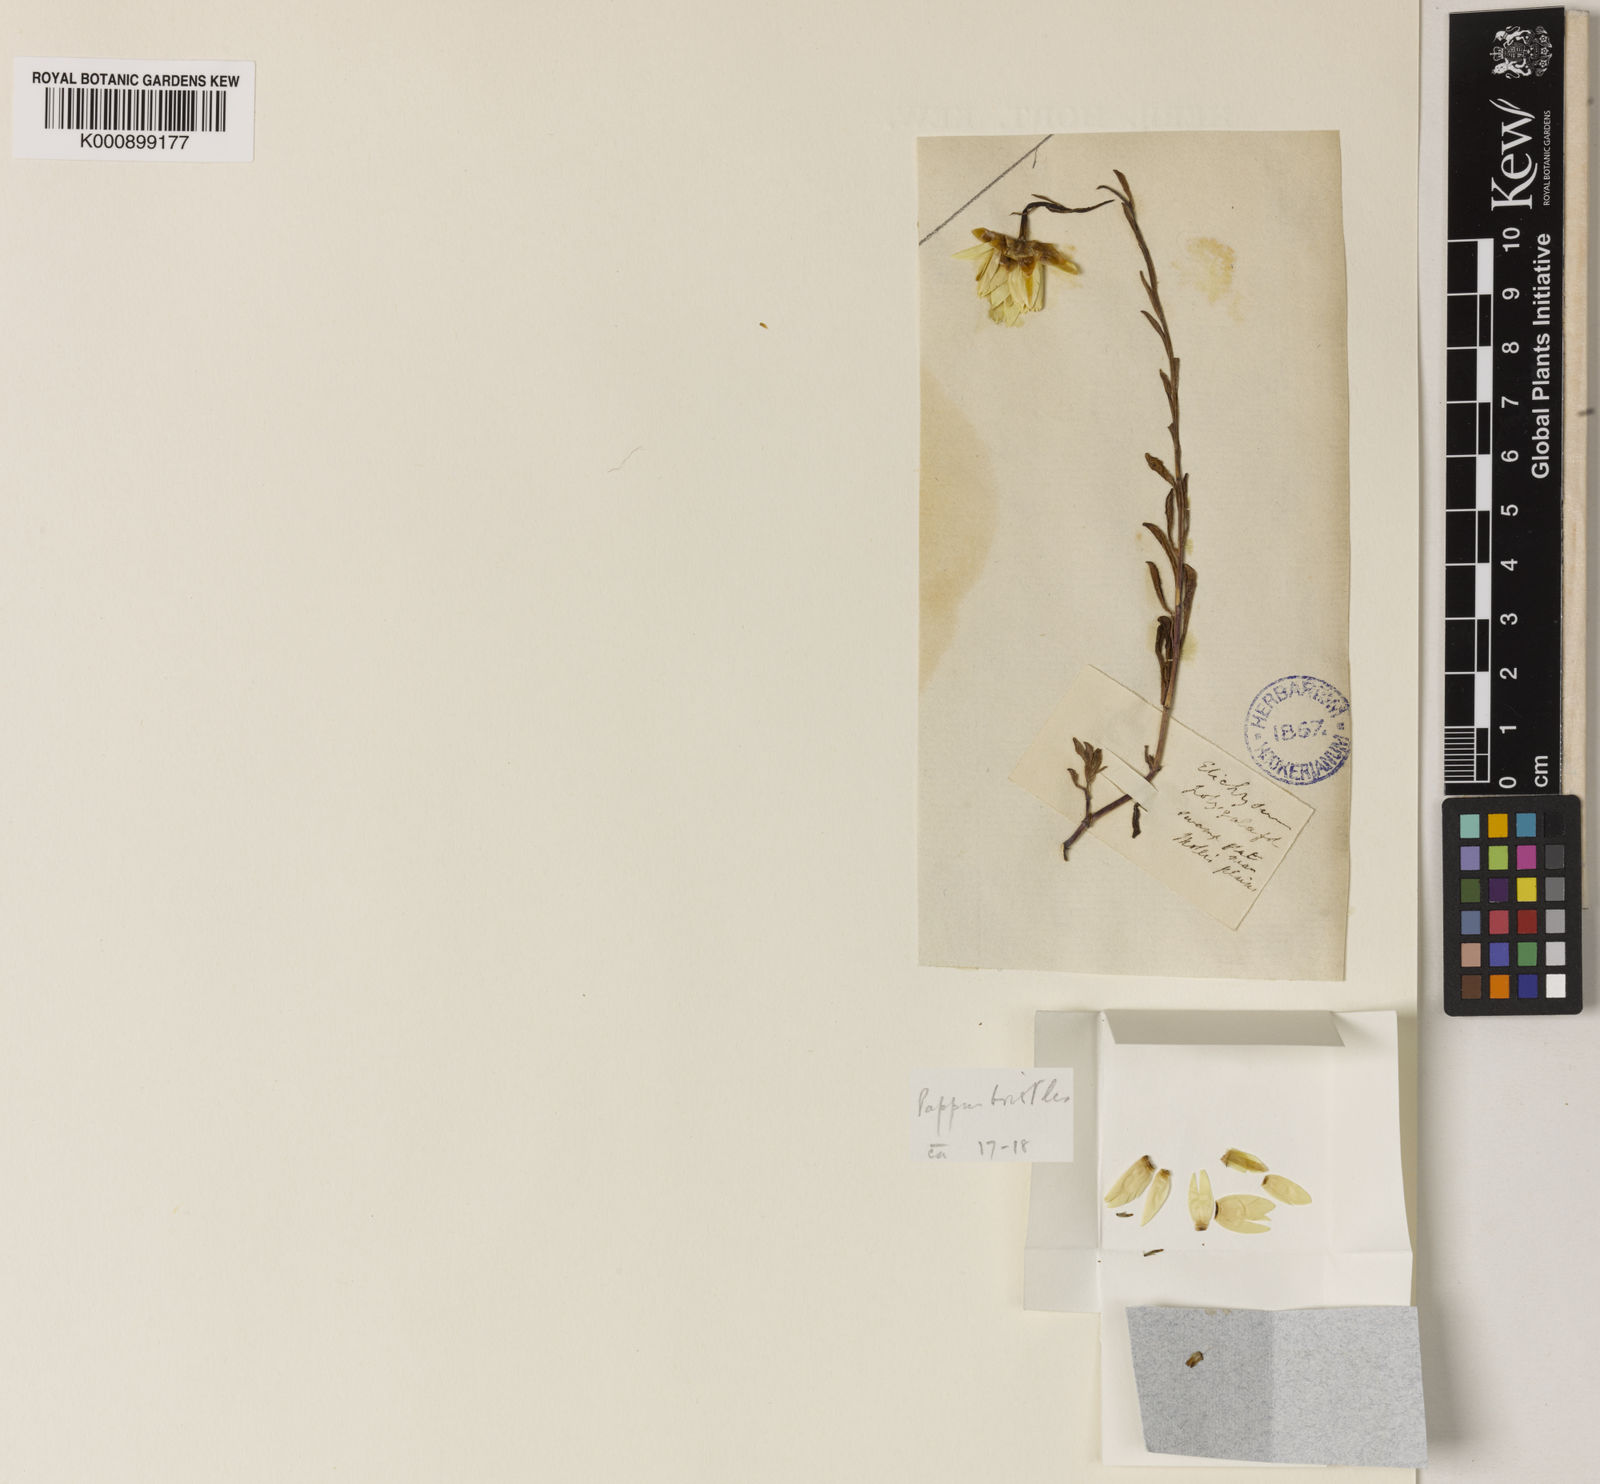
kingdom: Plantae
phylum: Tracheophyta
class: Magnoliopsida
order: Asterales
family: Asteraceae
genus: Rhodanthe
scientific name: Rhodanthe polygalifolia
